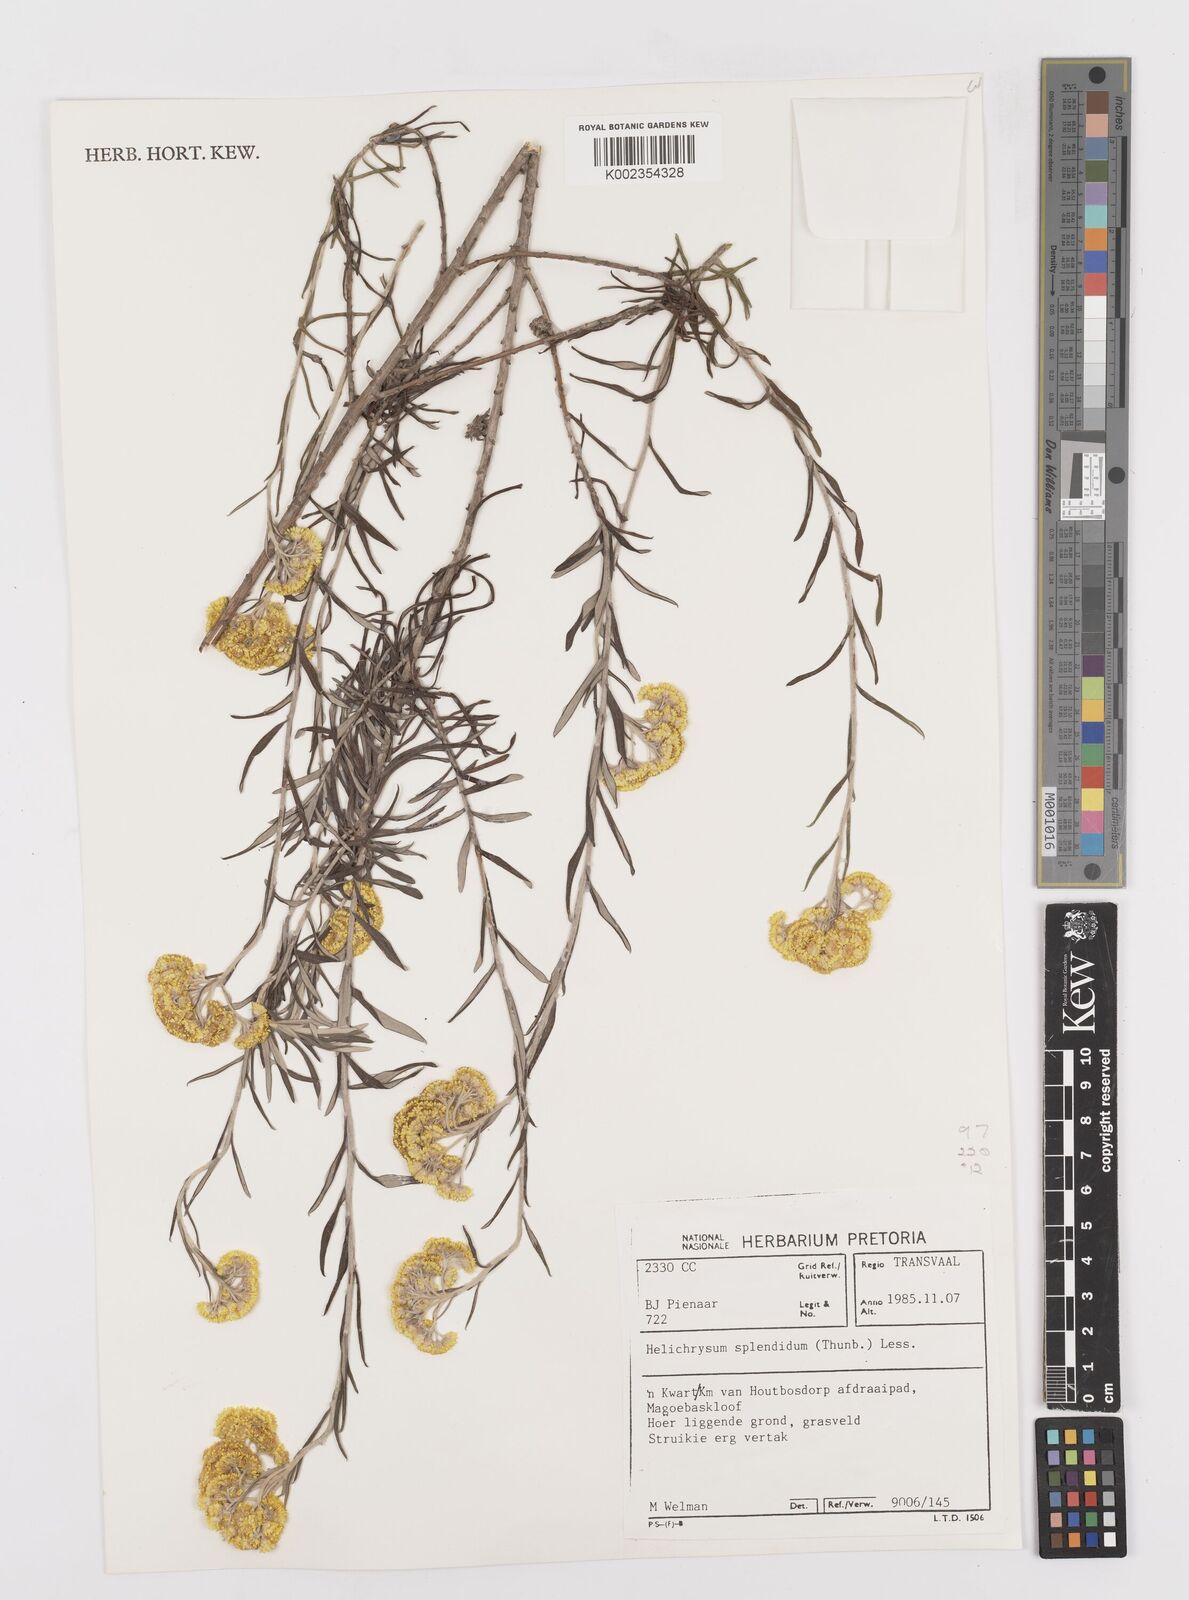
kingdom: Plantae
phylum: Tracheophyta
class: Magnoliopsida
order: Asterales
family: Asteraceae
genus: Helichrysum
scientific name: Helichrysum splendidum
